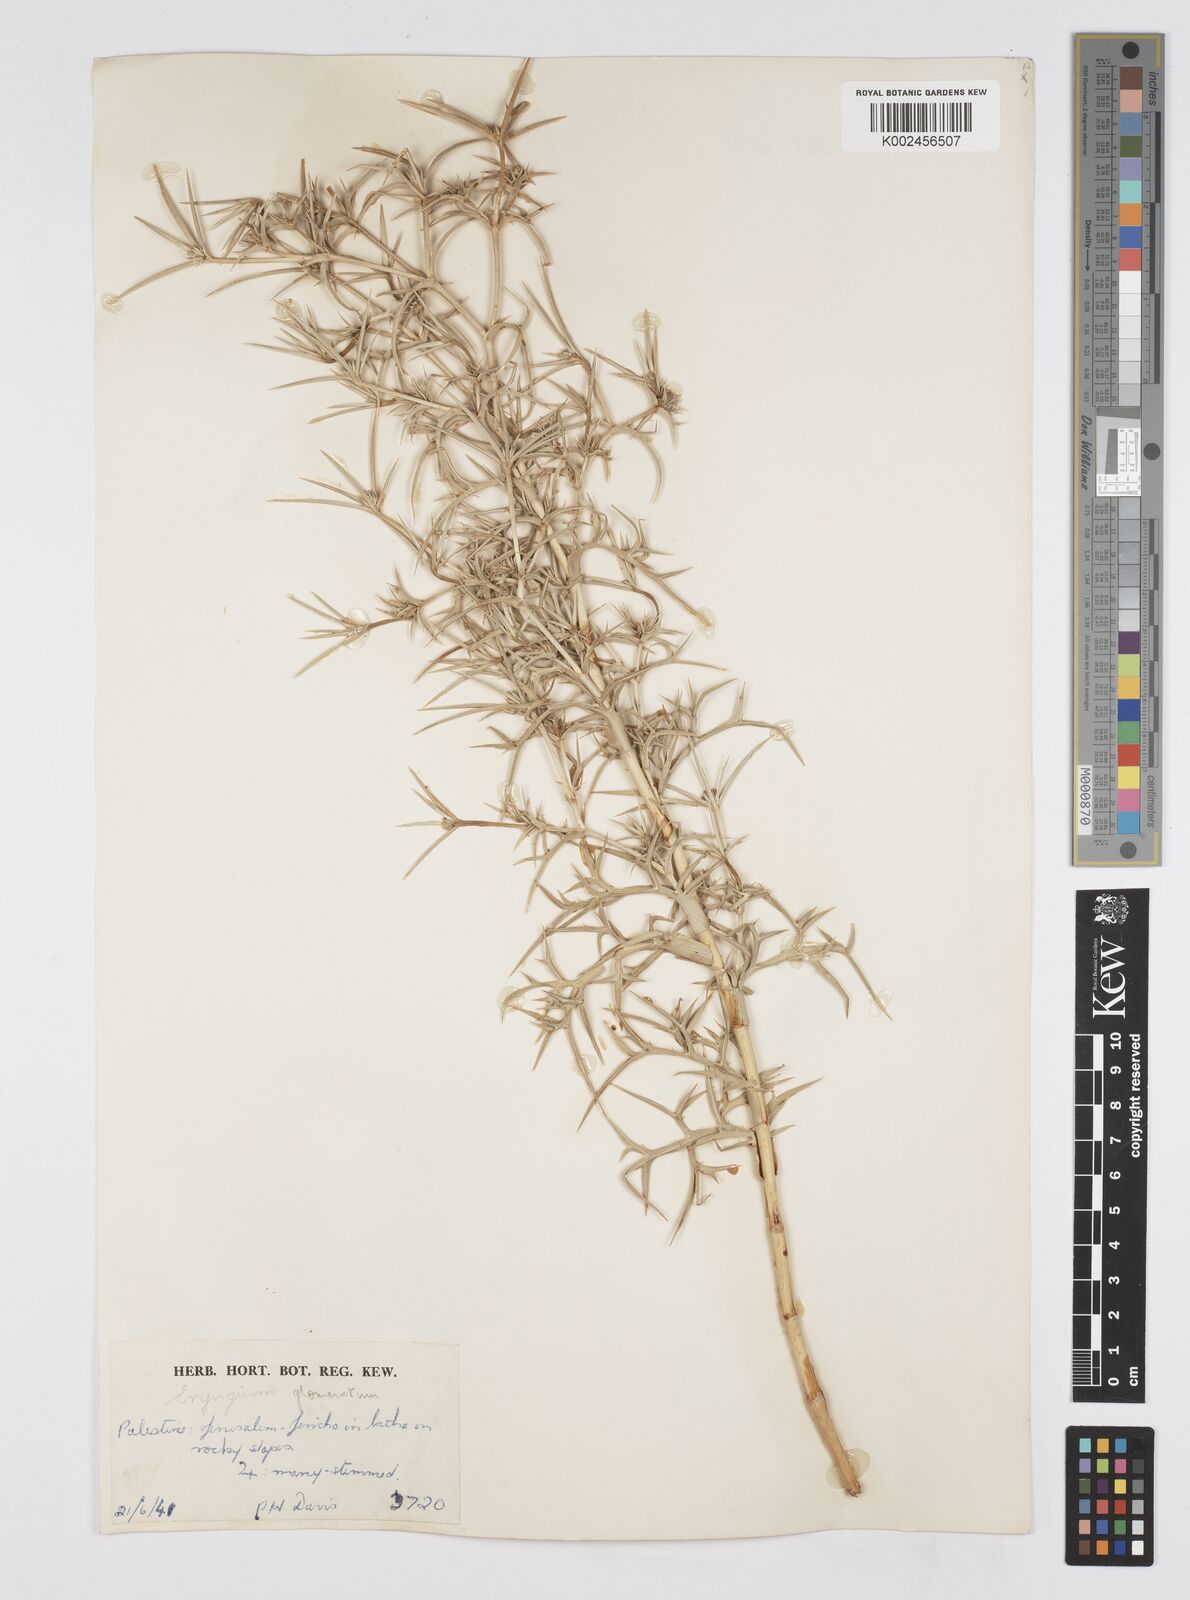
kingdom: Plantae
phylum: Tracheophyta
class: Magnoliopsida
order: Apiales
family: Apiaceae
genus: Eryngium
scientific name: Eryngium glomeratum
